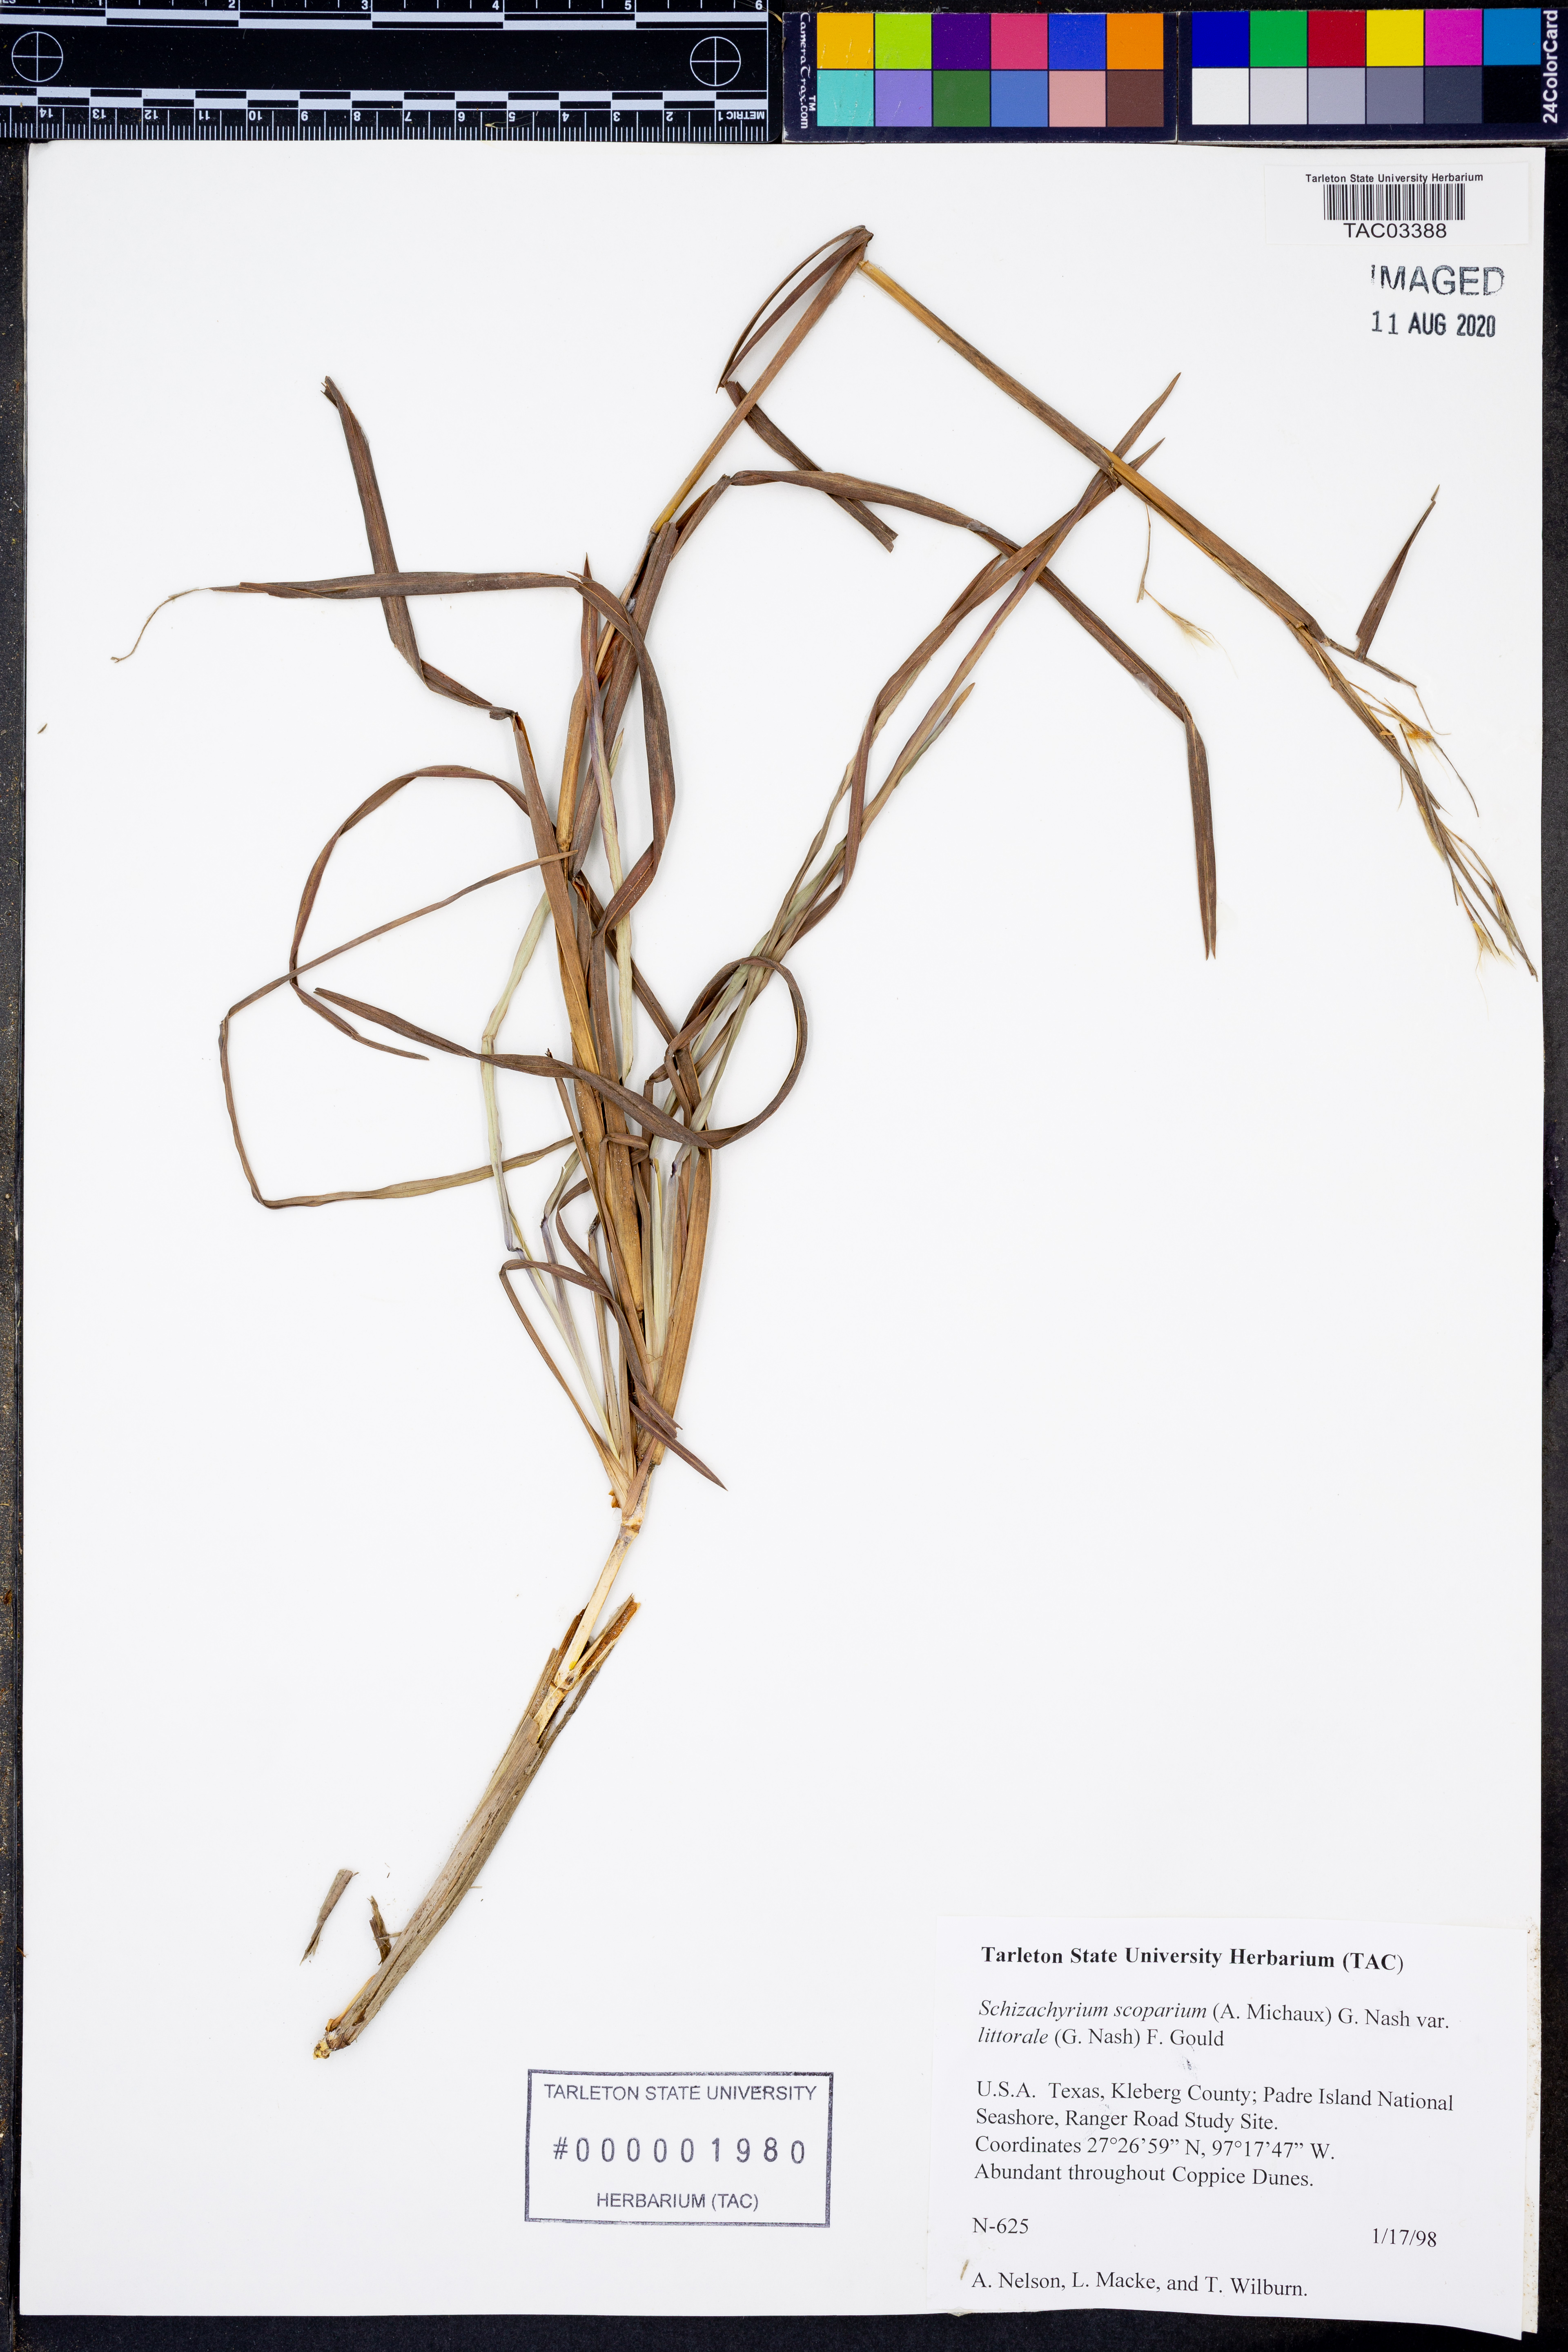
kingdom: Plantae
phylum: Tracheophyta
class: Liliopsida
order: Poales
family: Poaceae
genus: Schizachyrium
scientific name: Schizachyrium scoparium
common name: Little bluestem
